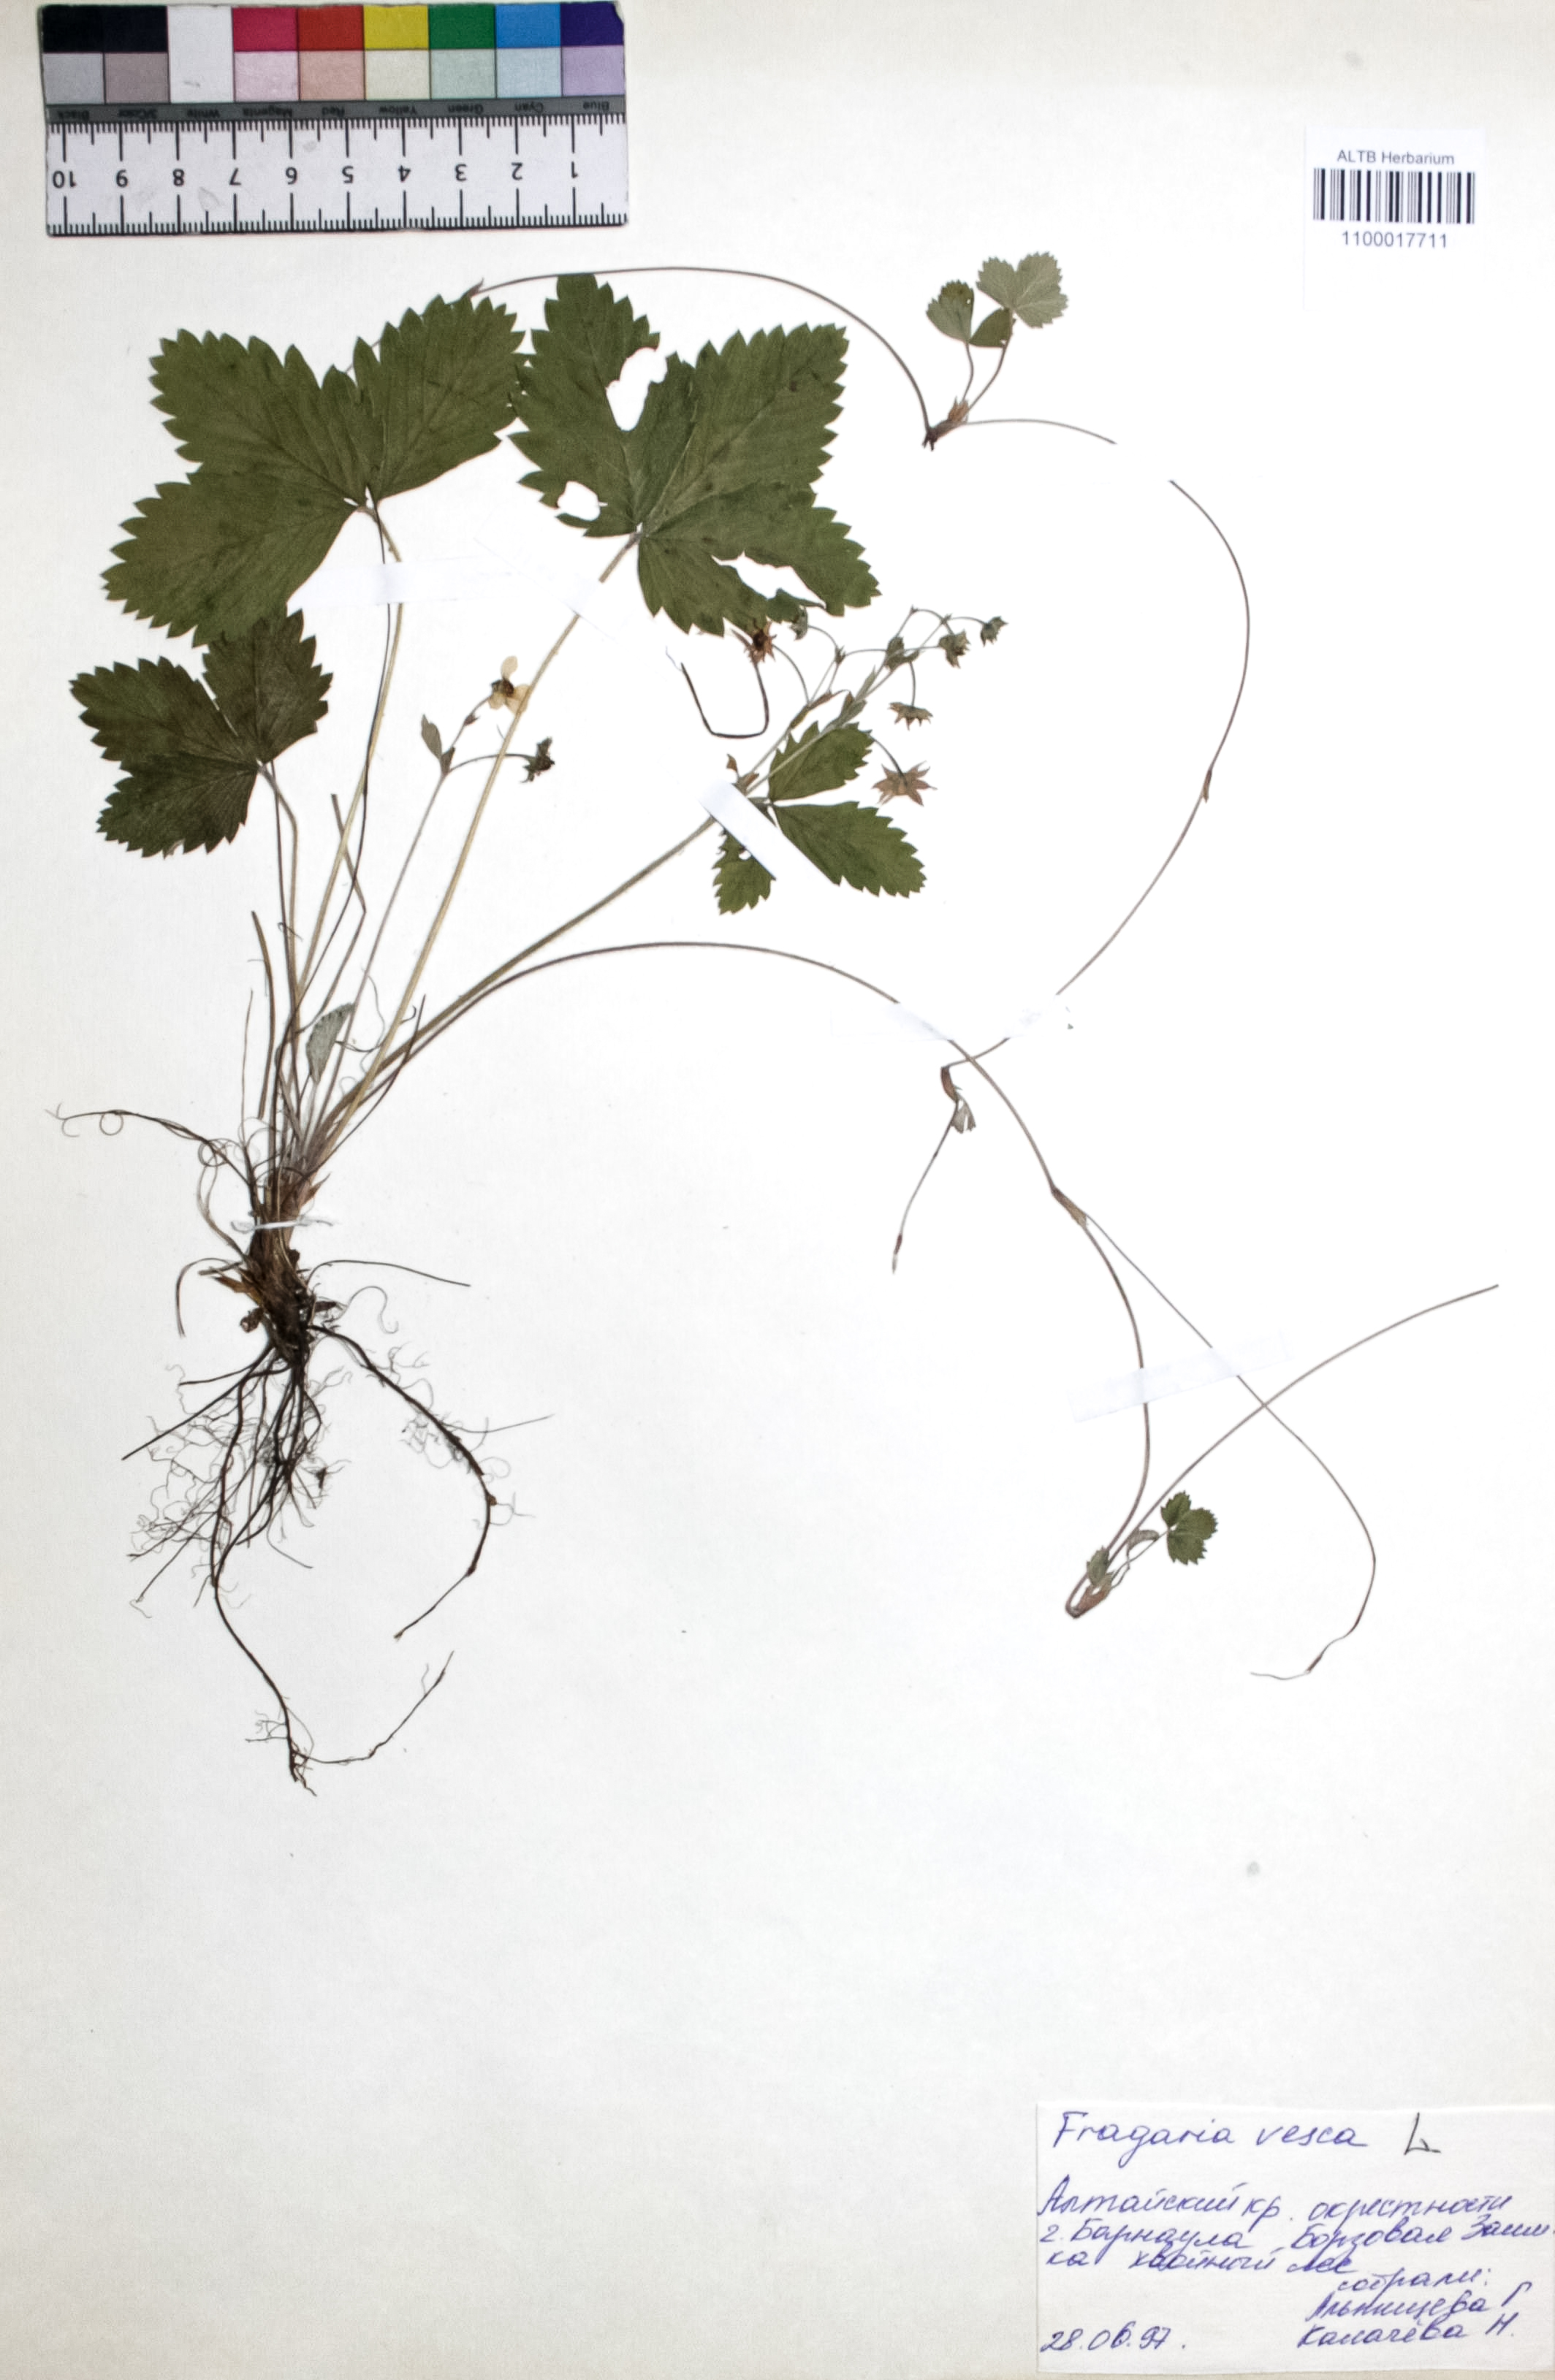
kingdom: Plantae
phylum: Tracheophyta
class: Magnoliopsida
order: Rosales
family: Rosaceae
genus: Fragaria
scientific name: Fragaria vesca
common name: Wild strawberry
